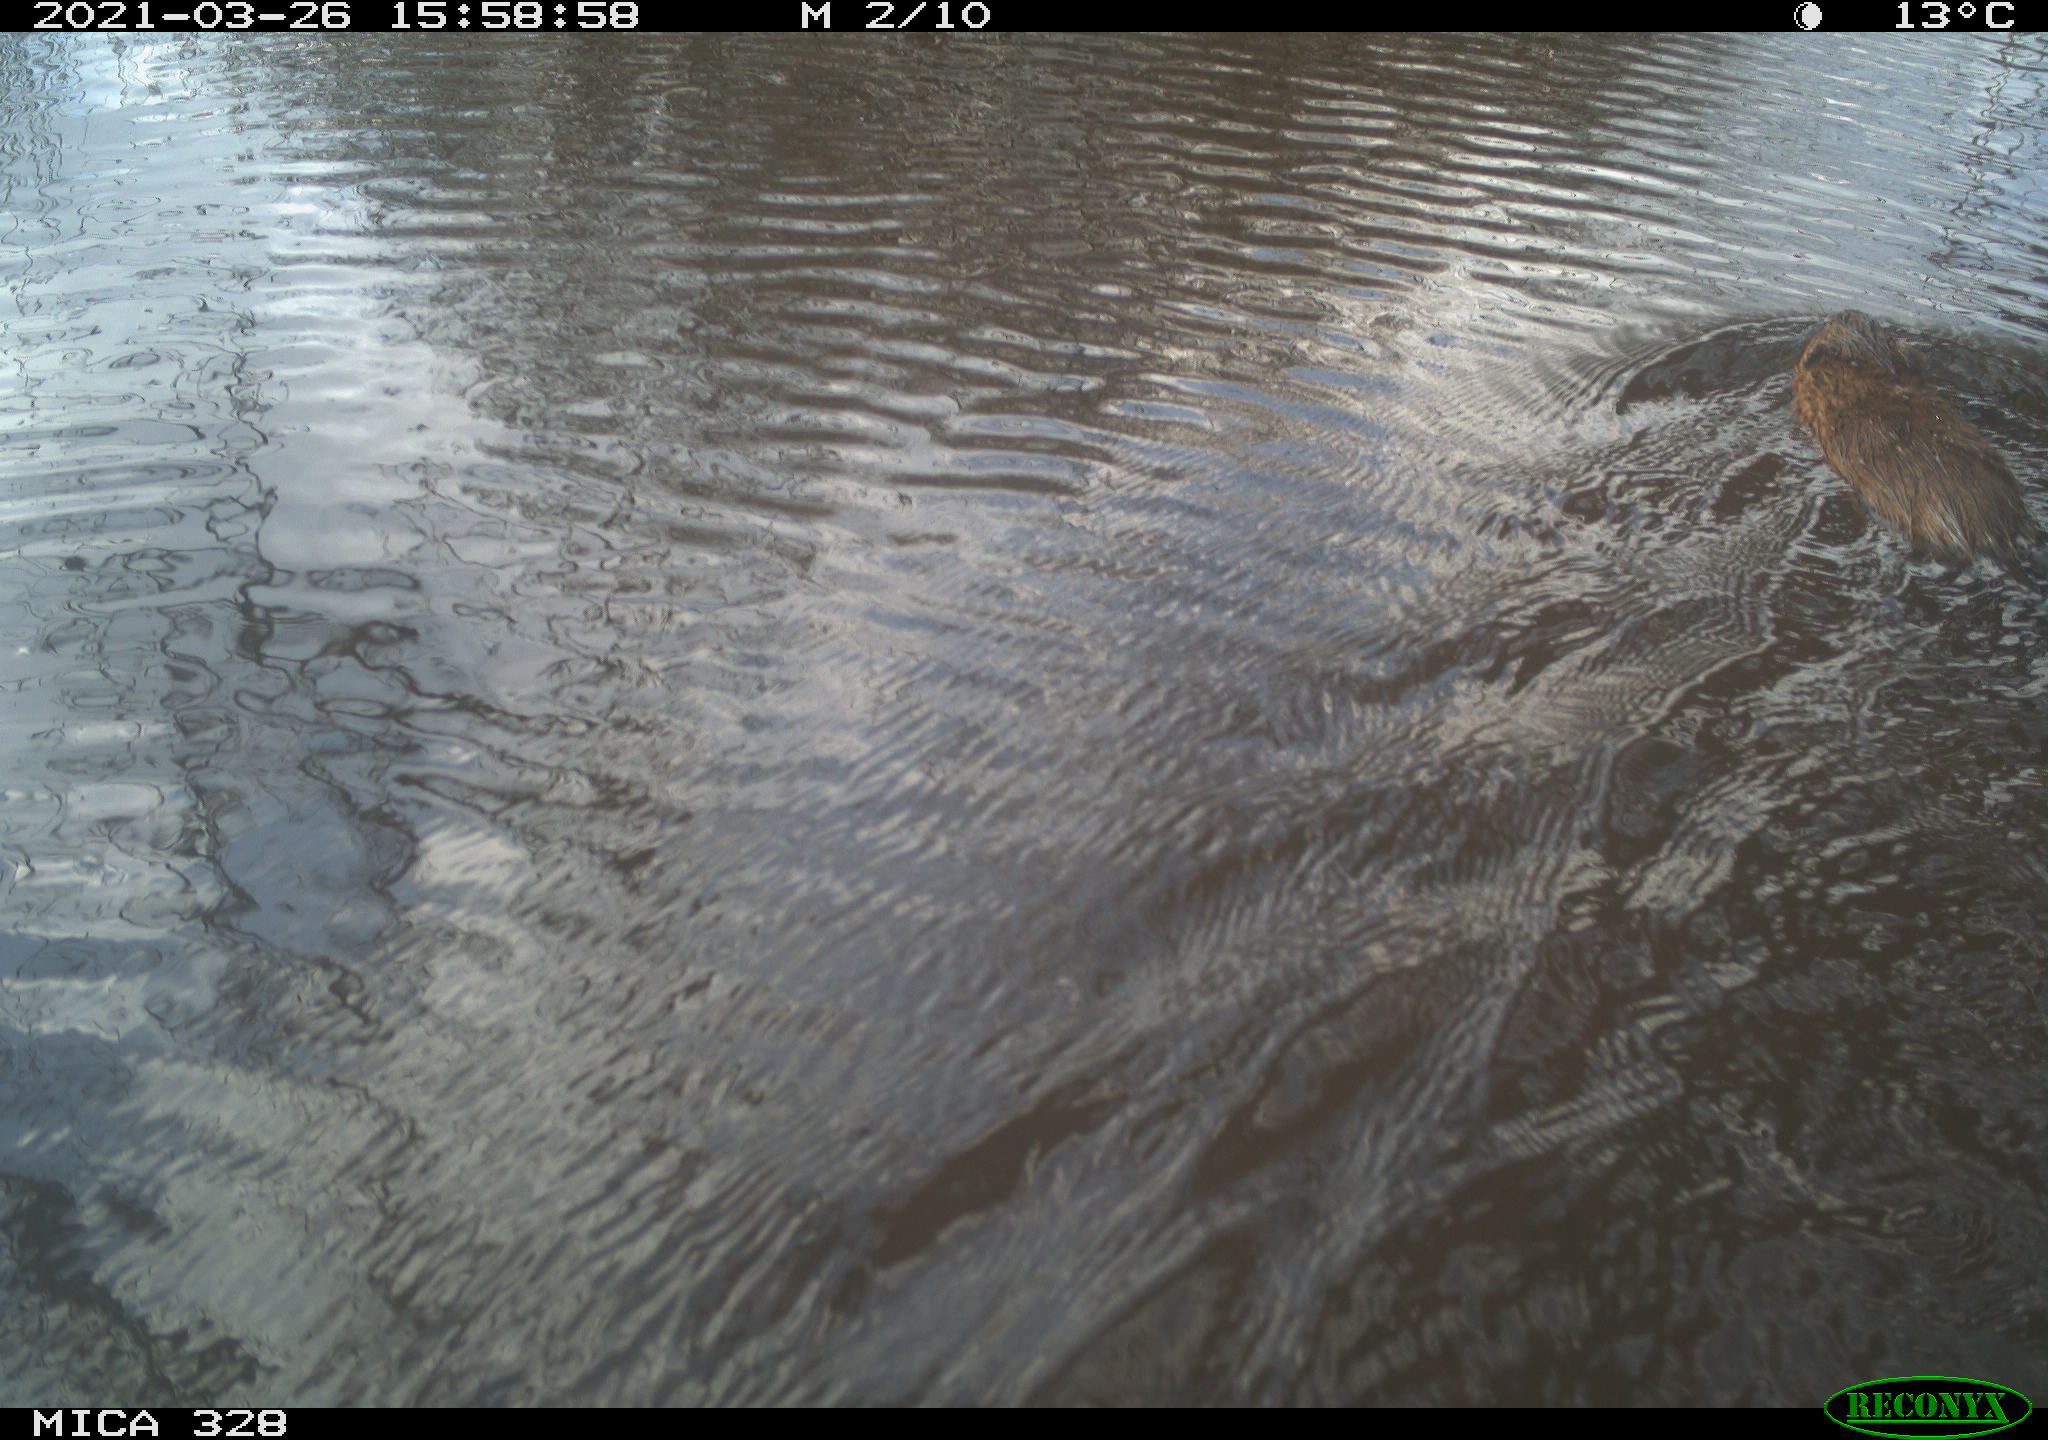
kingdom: Animalia
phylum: Chordata
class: Mammalia
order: Rodentia
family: Cricetidae
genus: Ondatra
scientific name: Ondatra zibethicus
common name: Muskrat
